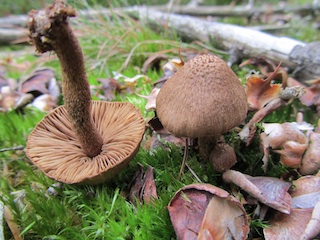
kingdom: Fungi
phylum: Basidiomycota
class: Agaricomycetes
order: Agaricales
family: Inocybaceae
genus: Inocybe
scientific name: Inocybe stellatospora
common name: spidsskællet trævlhat
